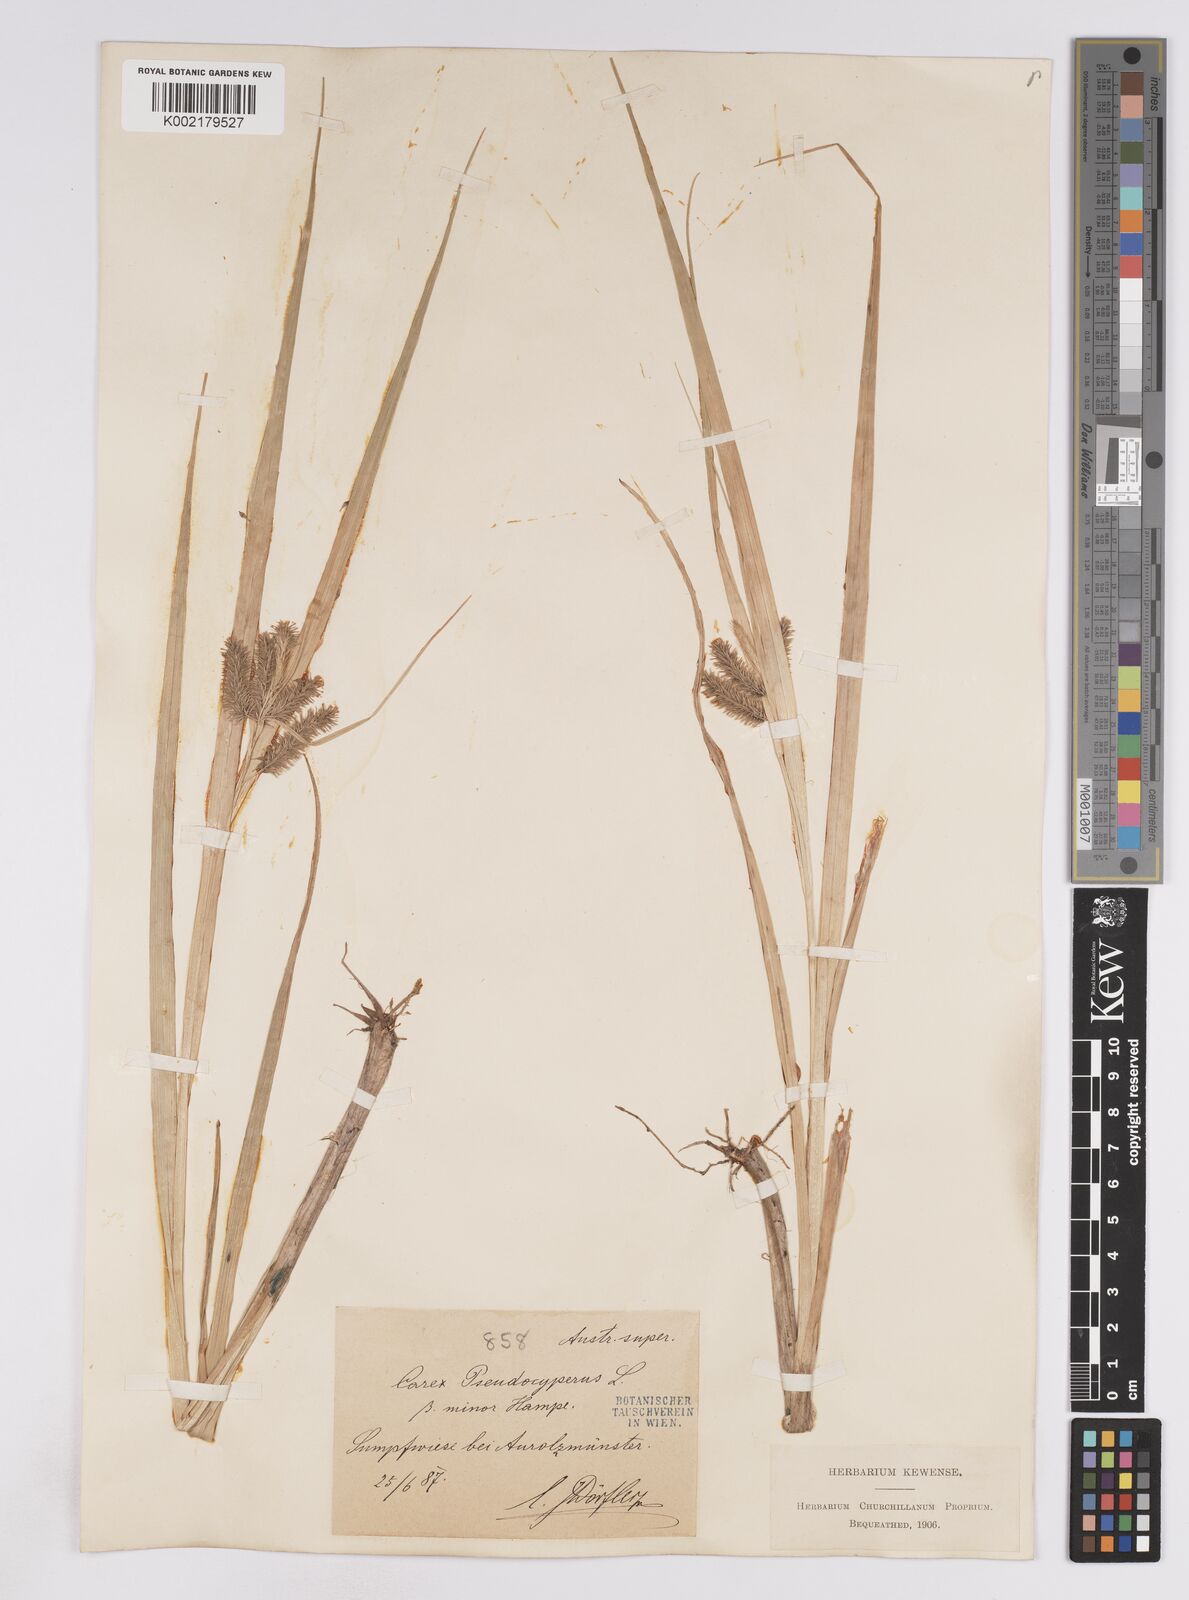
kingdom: Plantae
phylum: Tracheophyta
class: Liliopsida
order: Poales
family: Cyperaceae
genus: Carex
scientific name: Carex pseudocyperus
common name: Cyperus sedge
